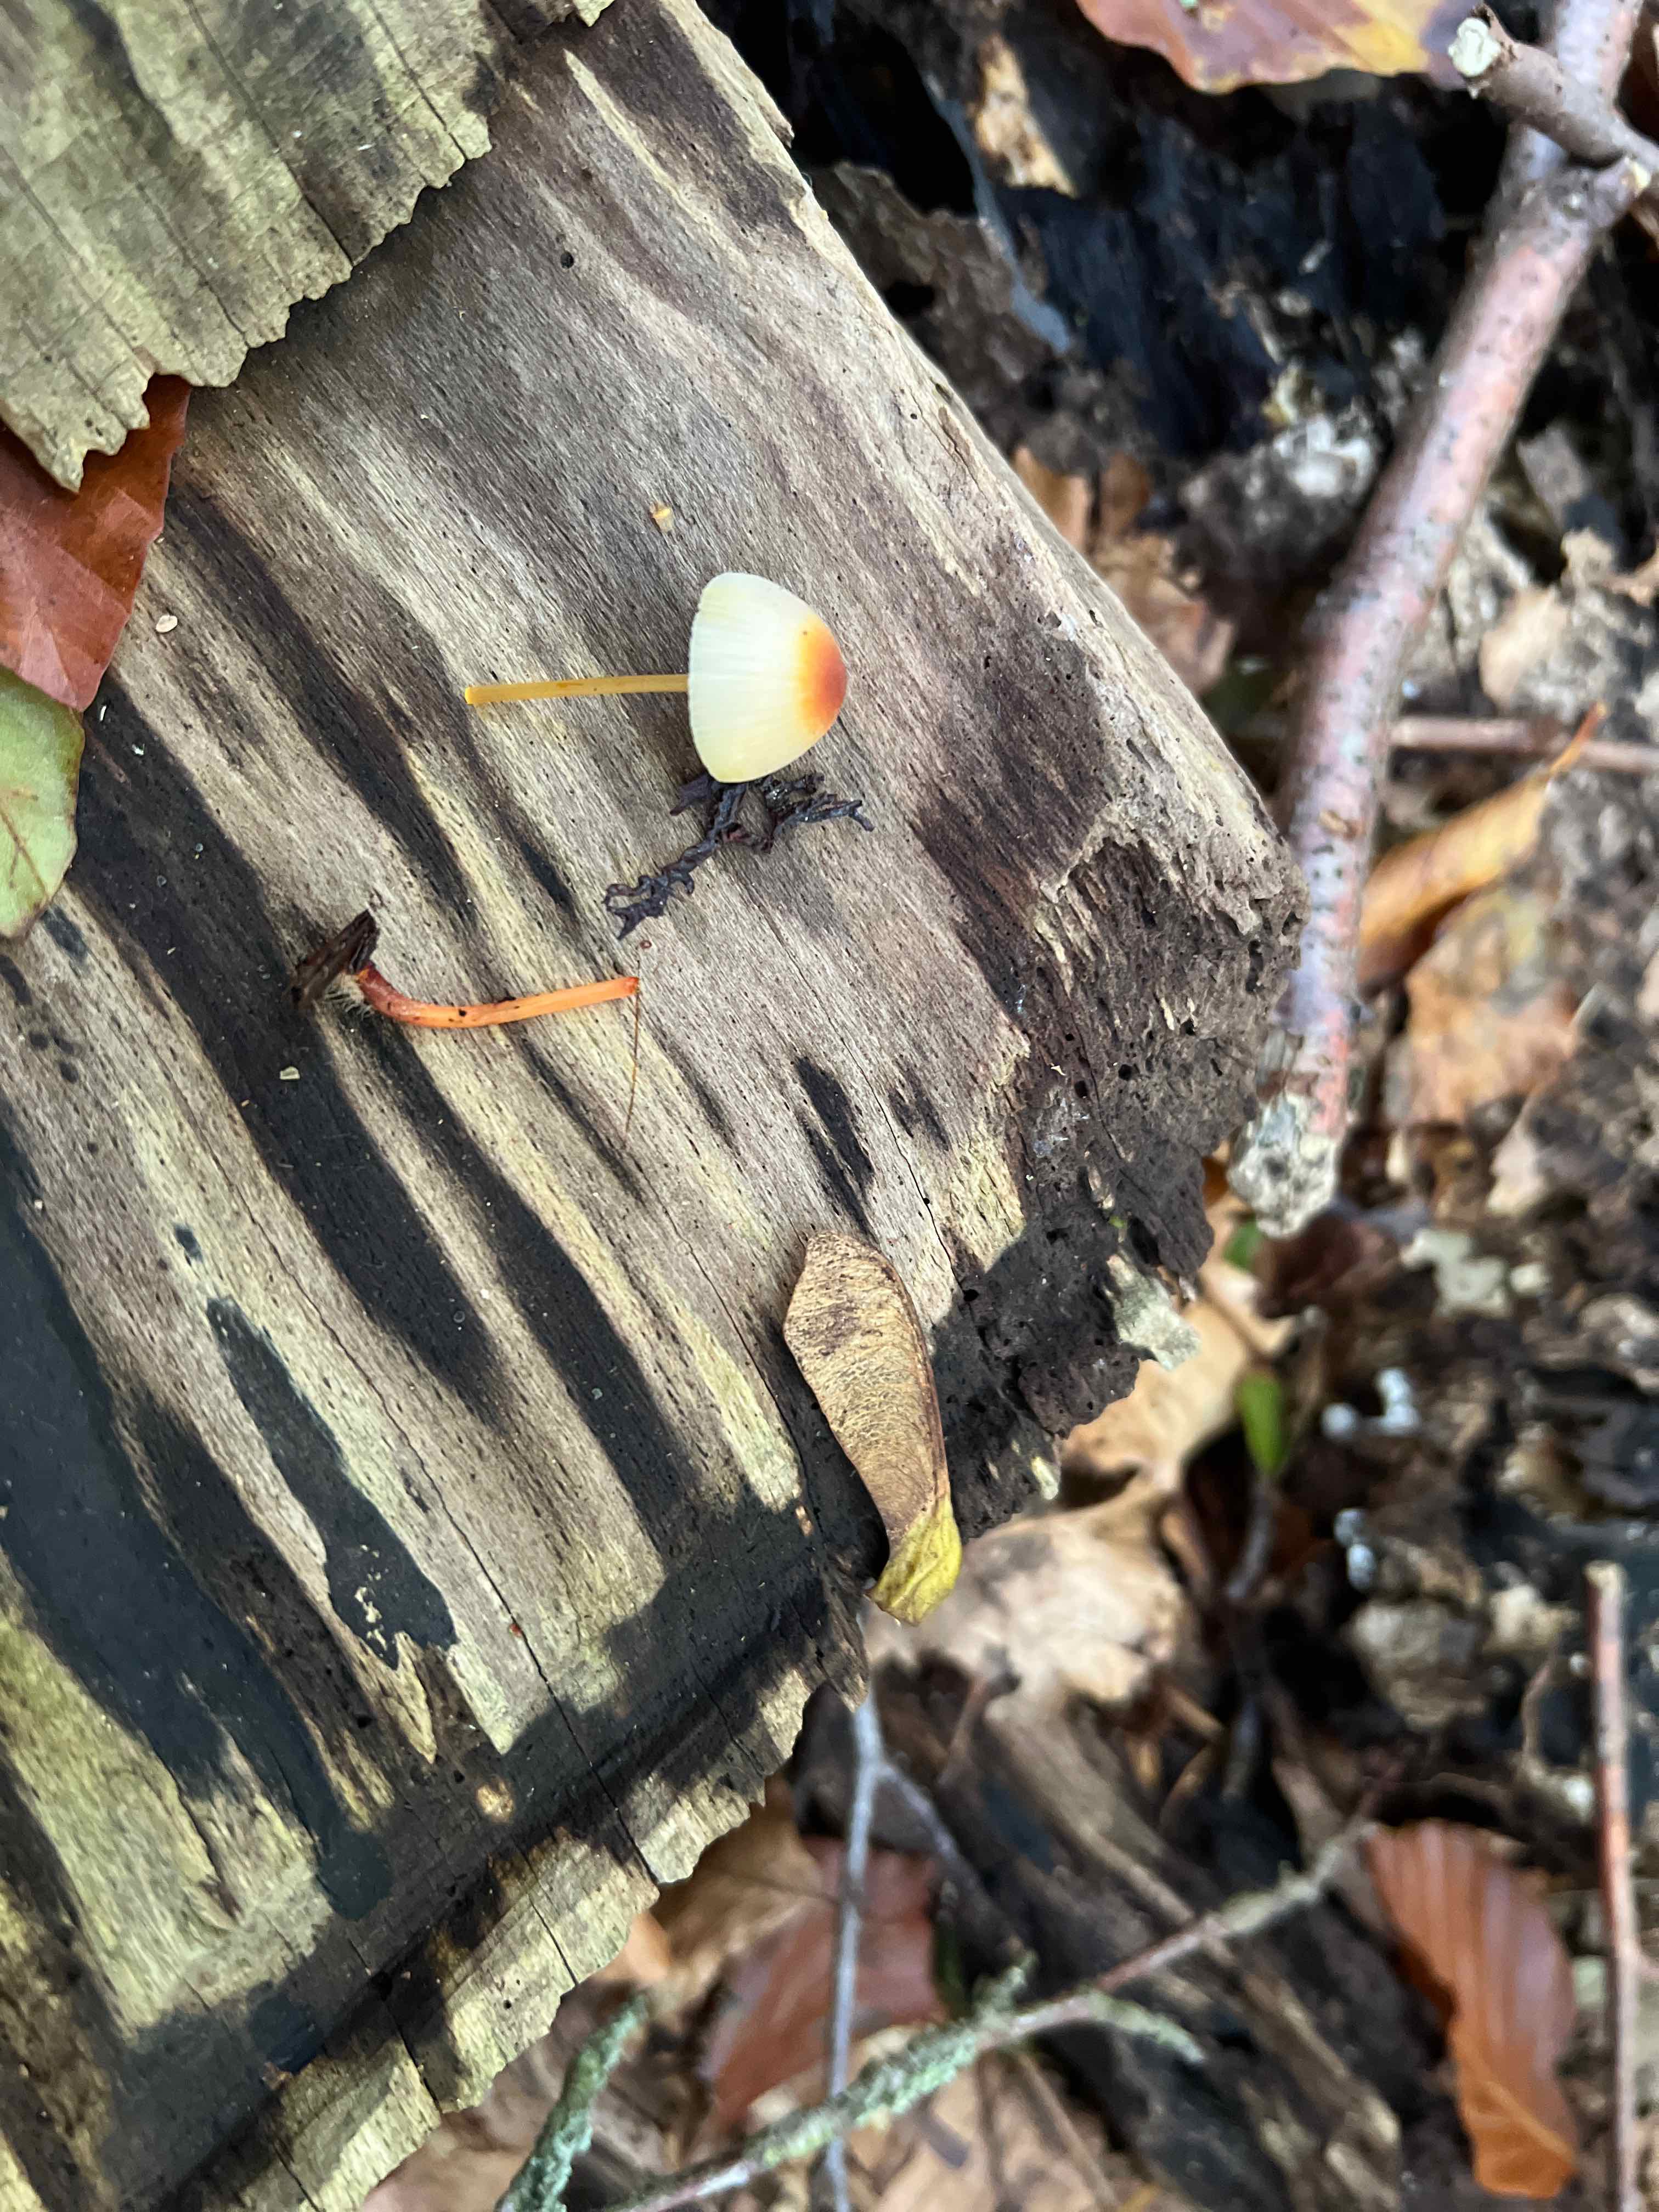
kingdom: Fungi
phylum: Basidiomycota
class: Agaricomycetes
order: Agaricales
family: Mycenaceae
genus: Mycena
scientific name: Mycena sanguinolenta
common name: rødmælket huesvamp
